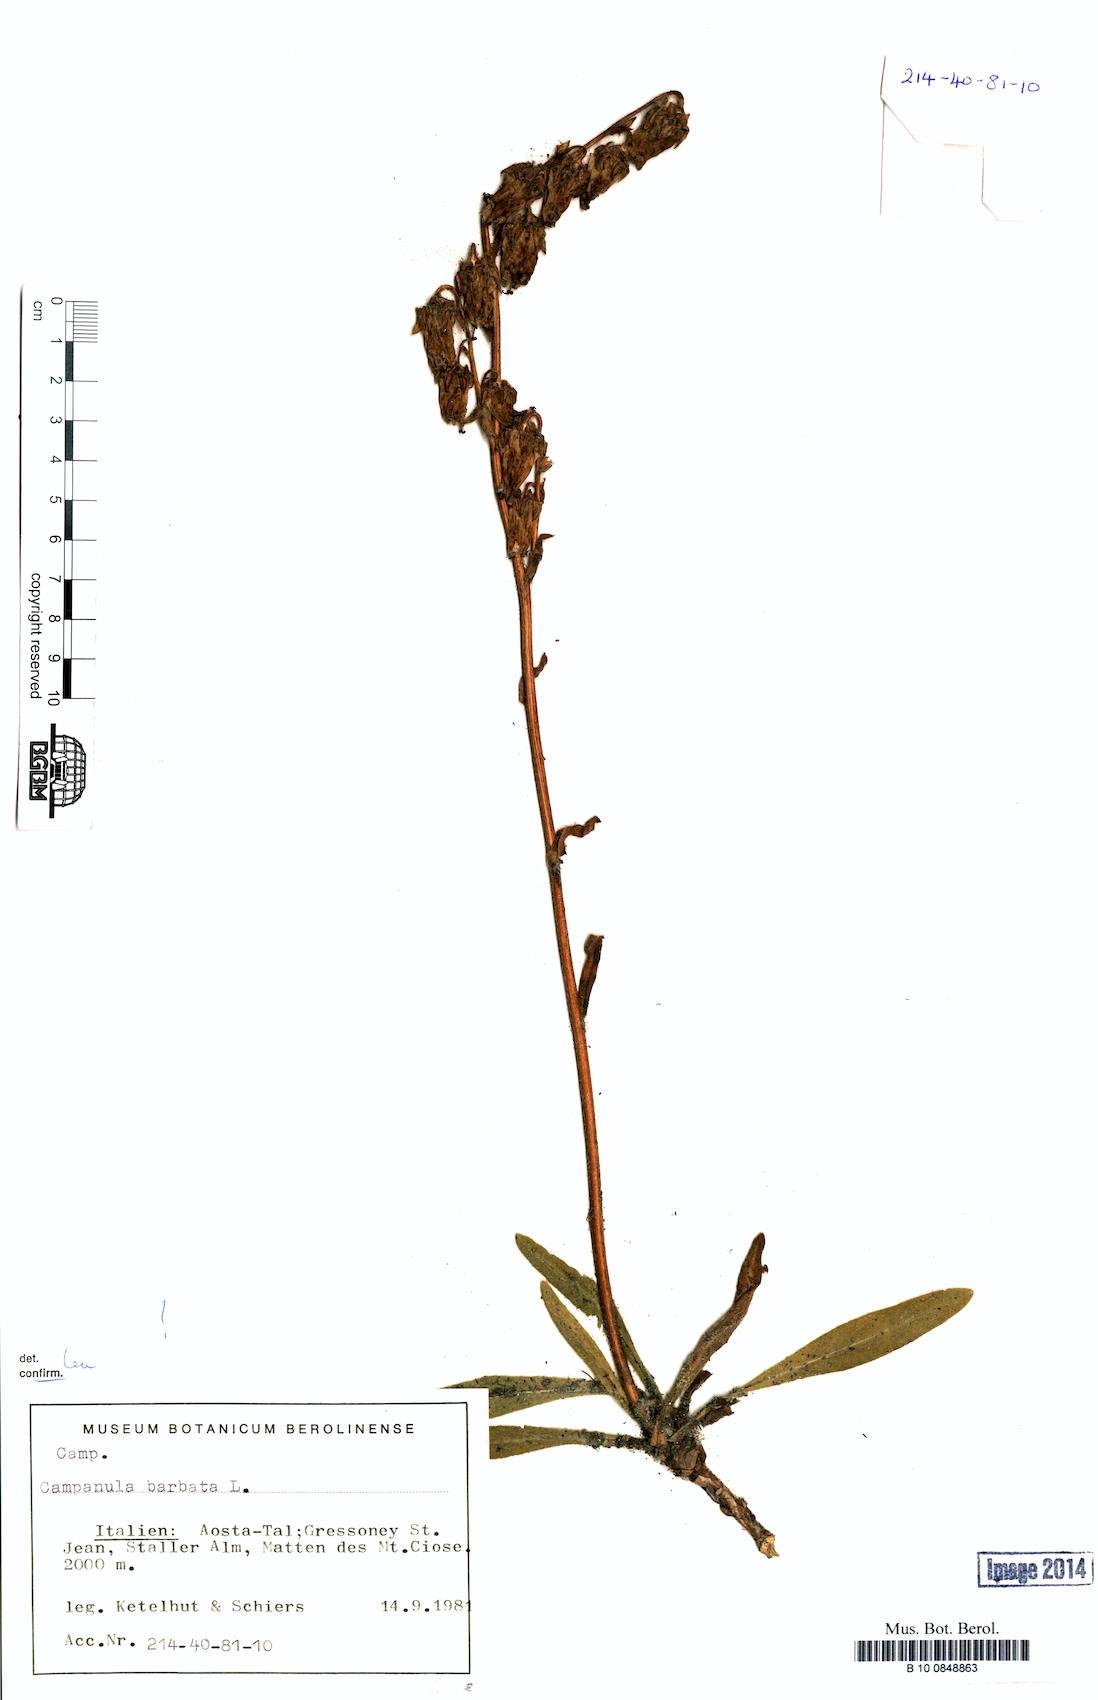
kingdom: Plantae
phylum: Tracheophyta
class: Magnoliopsida
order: Asterales
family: Campanulaceae
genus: Campanula
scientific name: Campanula barbata
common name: Bearded bellflower
